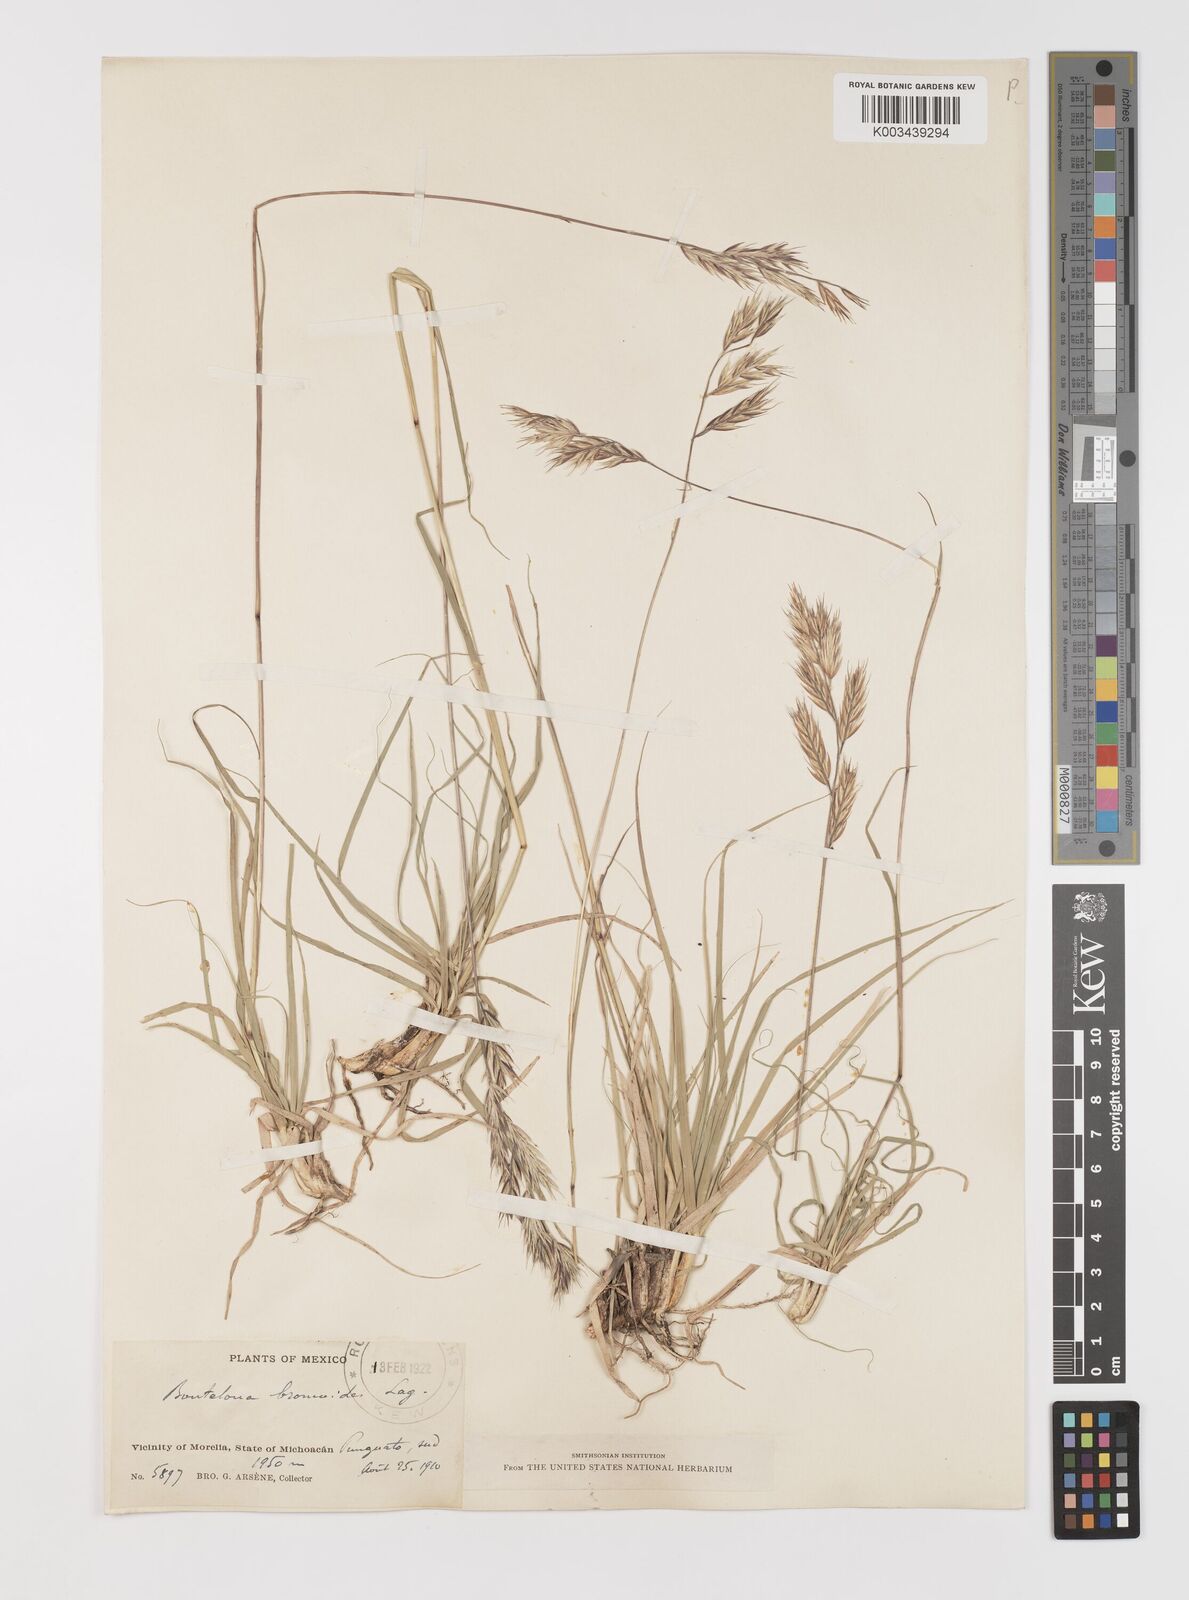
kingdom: Plantae
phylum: Tracheophyta
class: Liliopsida
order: Poales
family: Poaceae
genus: Bouteloua
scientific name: Bouteloua repens
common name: Slender grama
